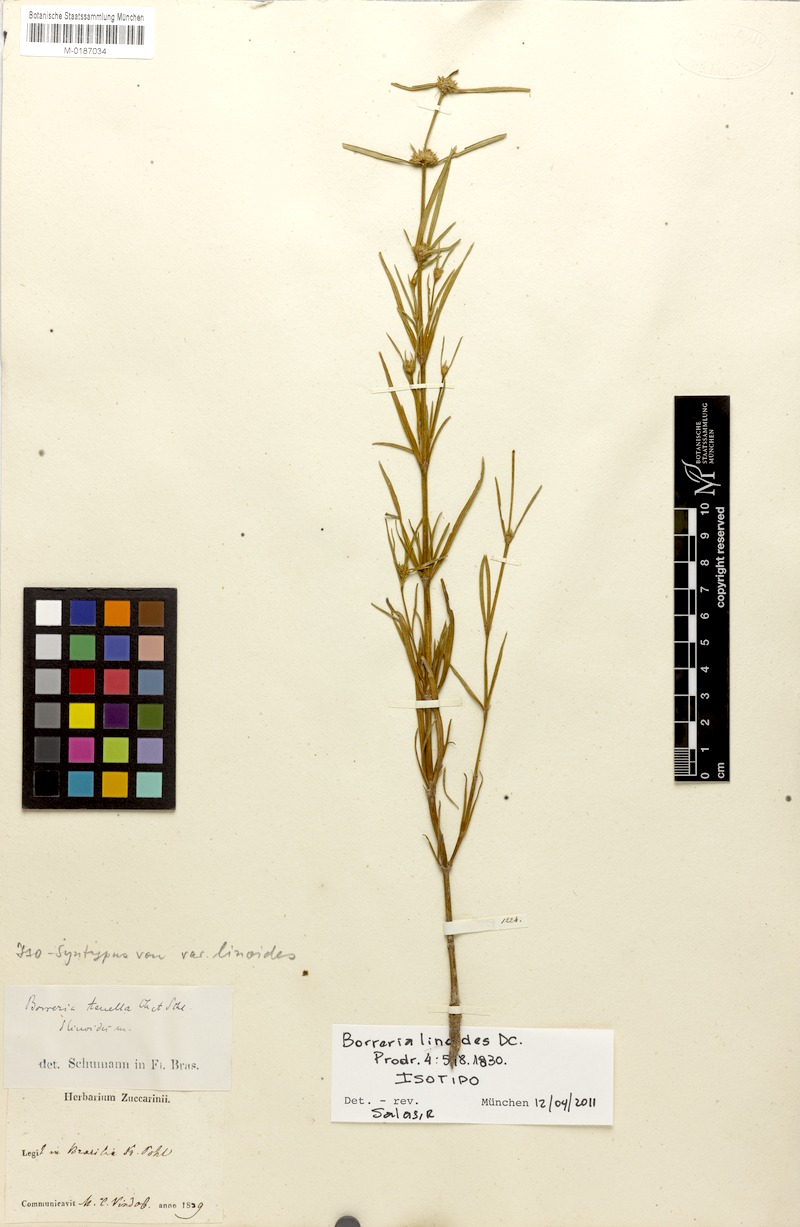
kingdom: Plantae
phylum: Tracheophyta
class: Magnoliopsida
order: Gentianales
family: Rubiaceae
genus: Spermacoce
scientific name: Spermacoce orinocensis
